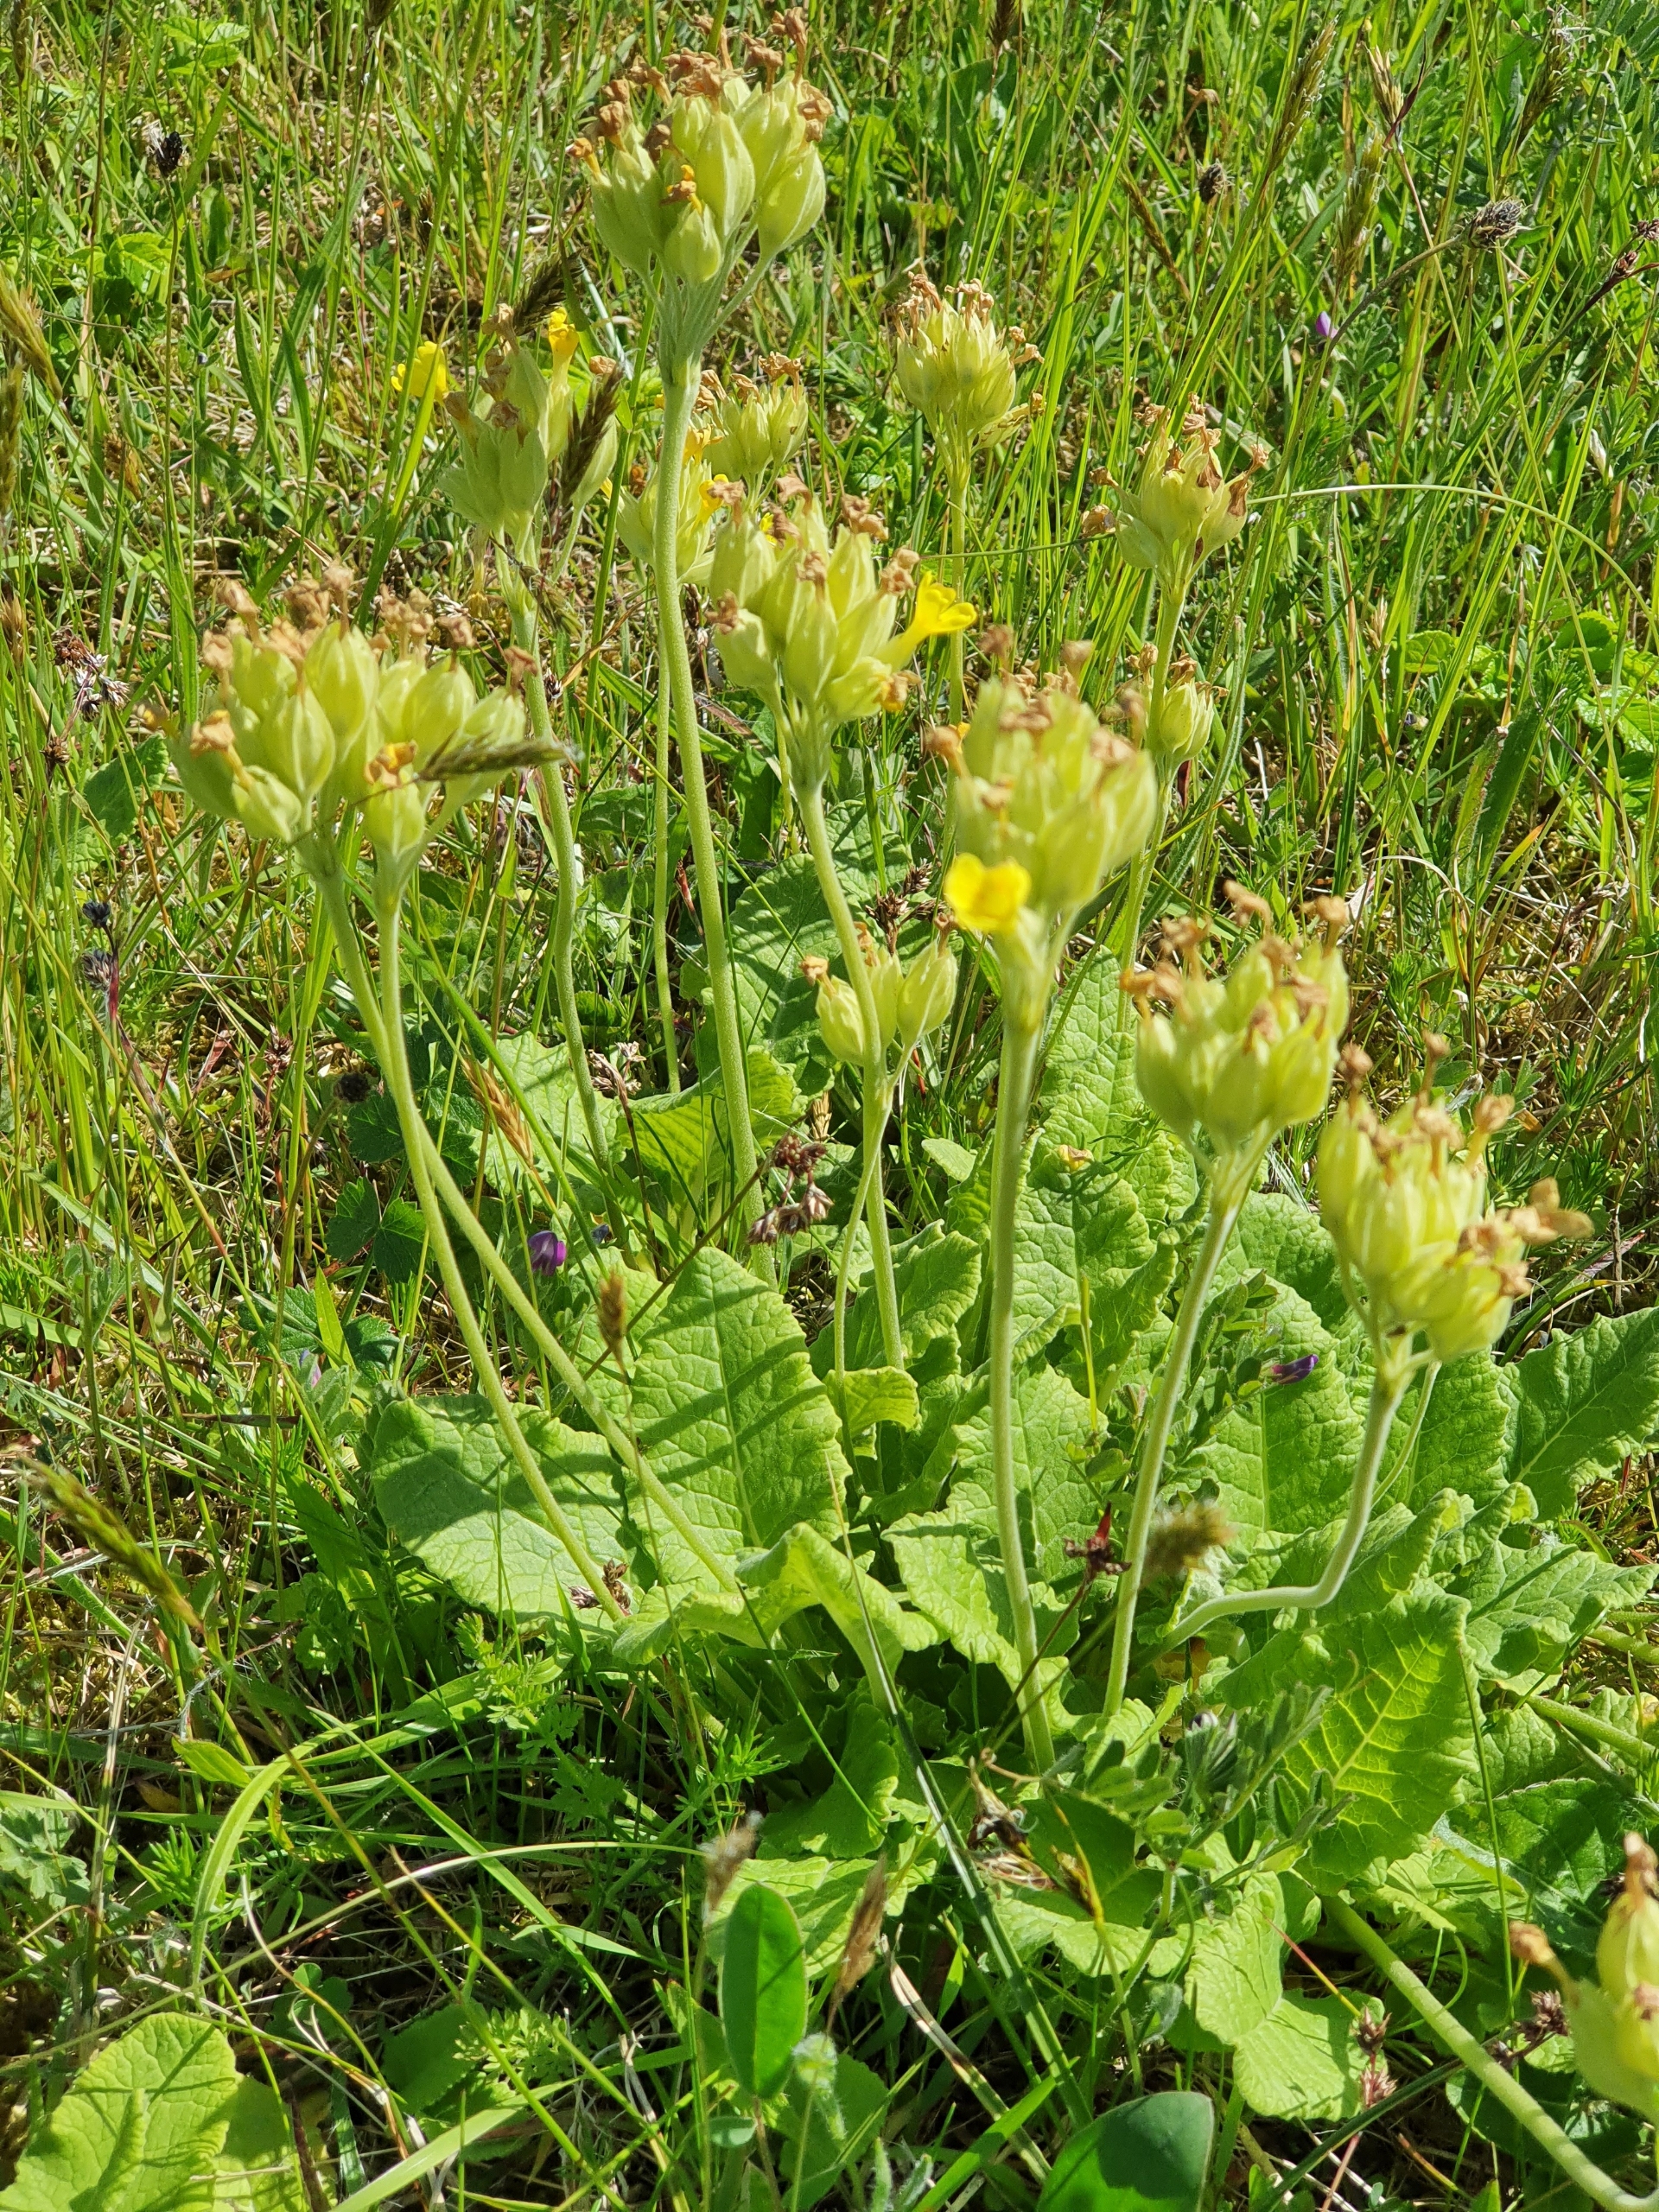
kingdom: Plantae
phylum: Tracheophyta
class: Magnoliopsida
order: Ericales
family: Primulaceae
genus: Primula
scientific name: Primula veris
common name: Hulkravet kodriver
